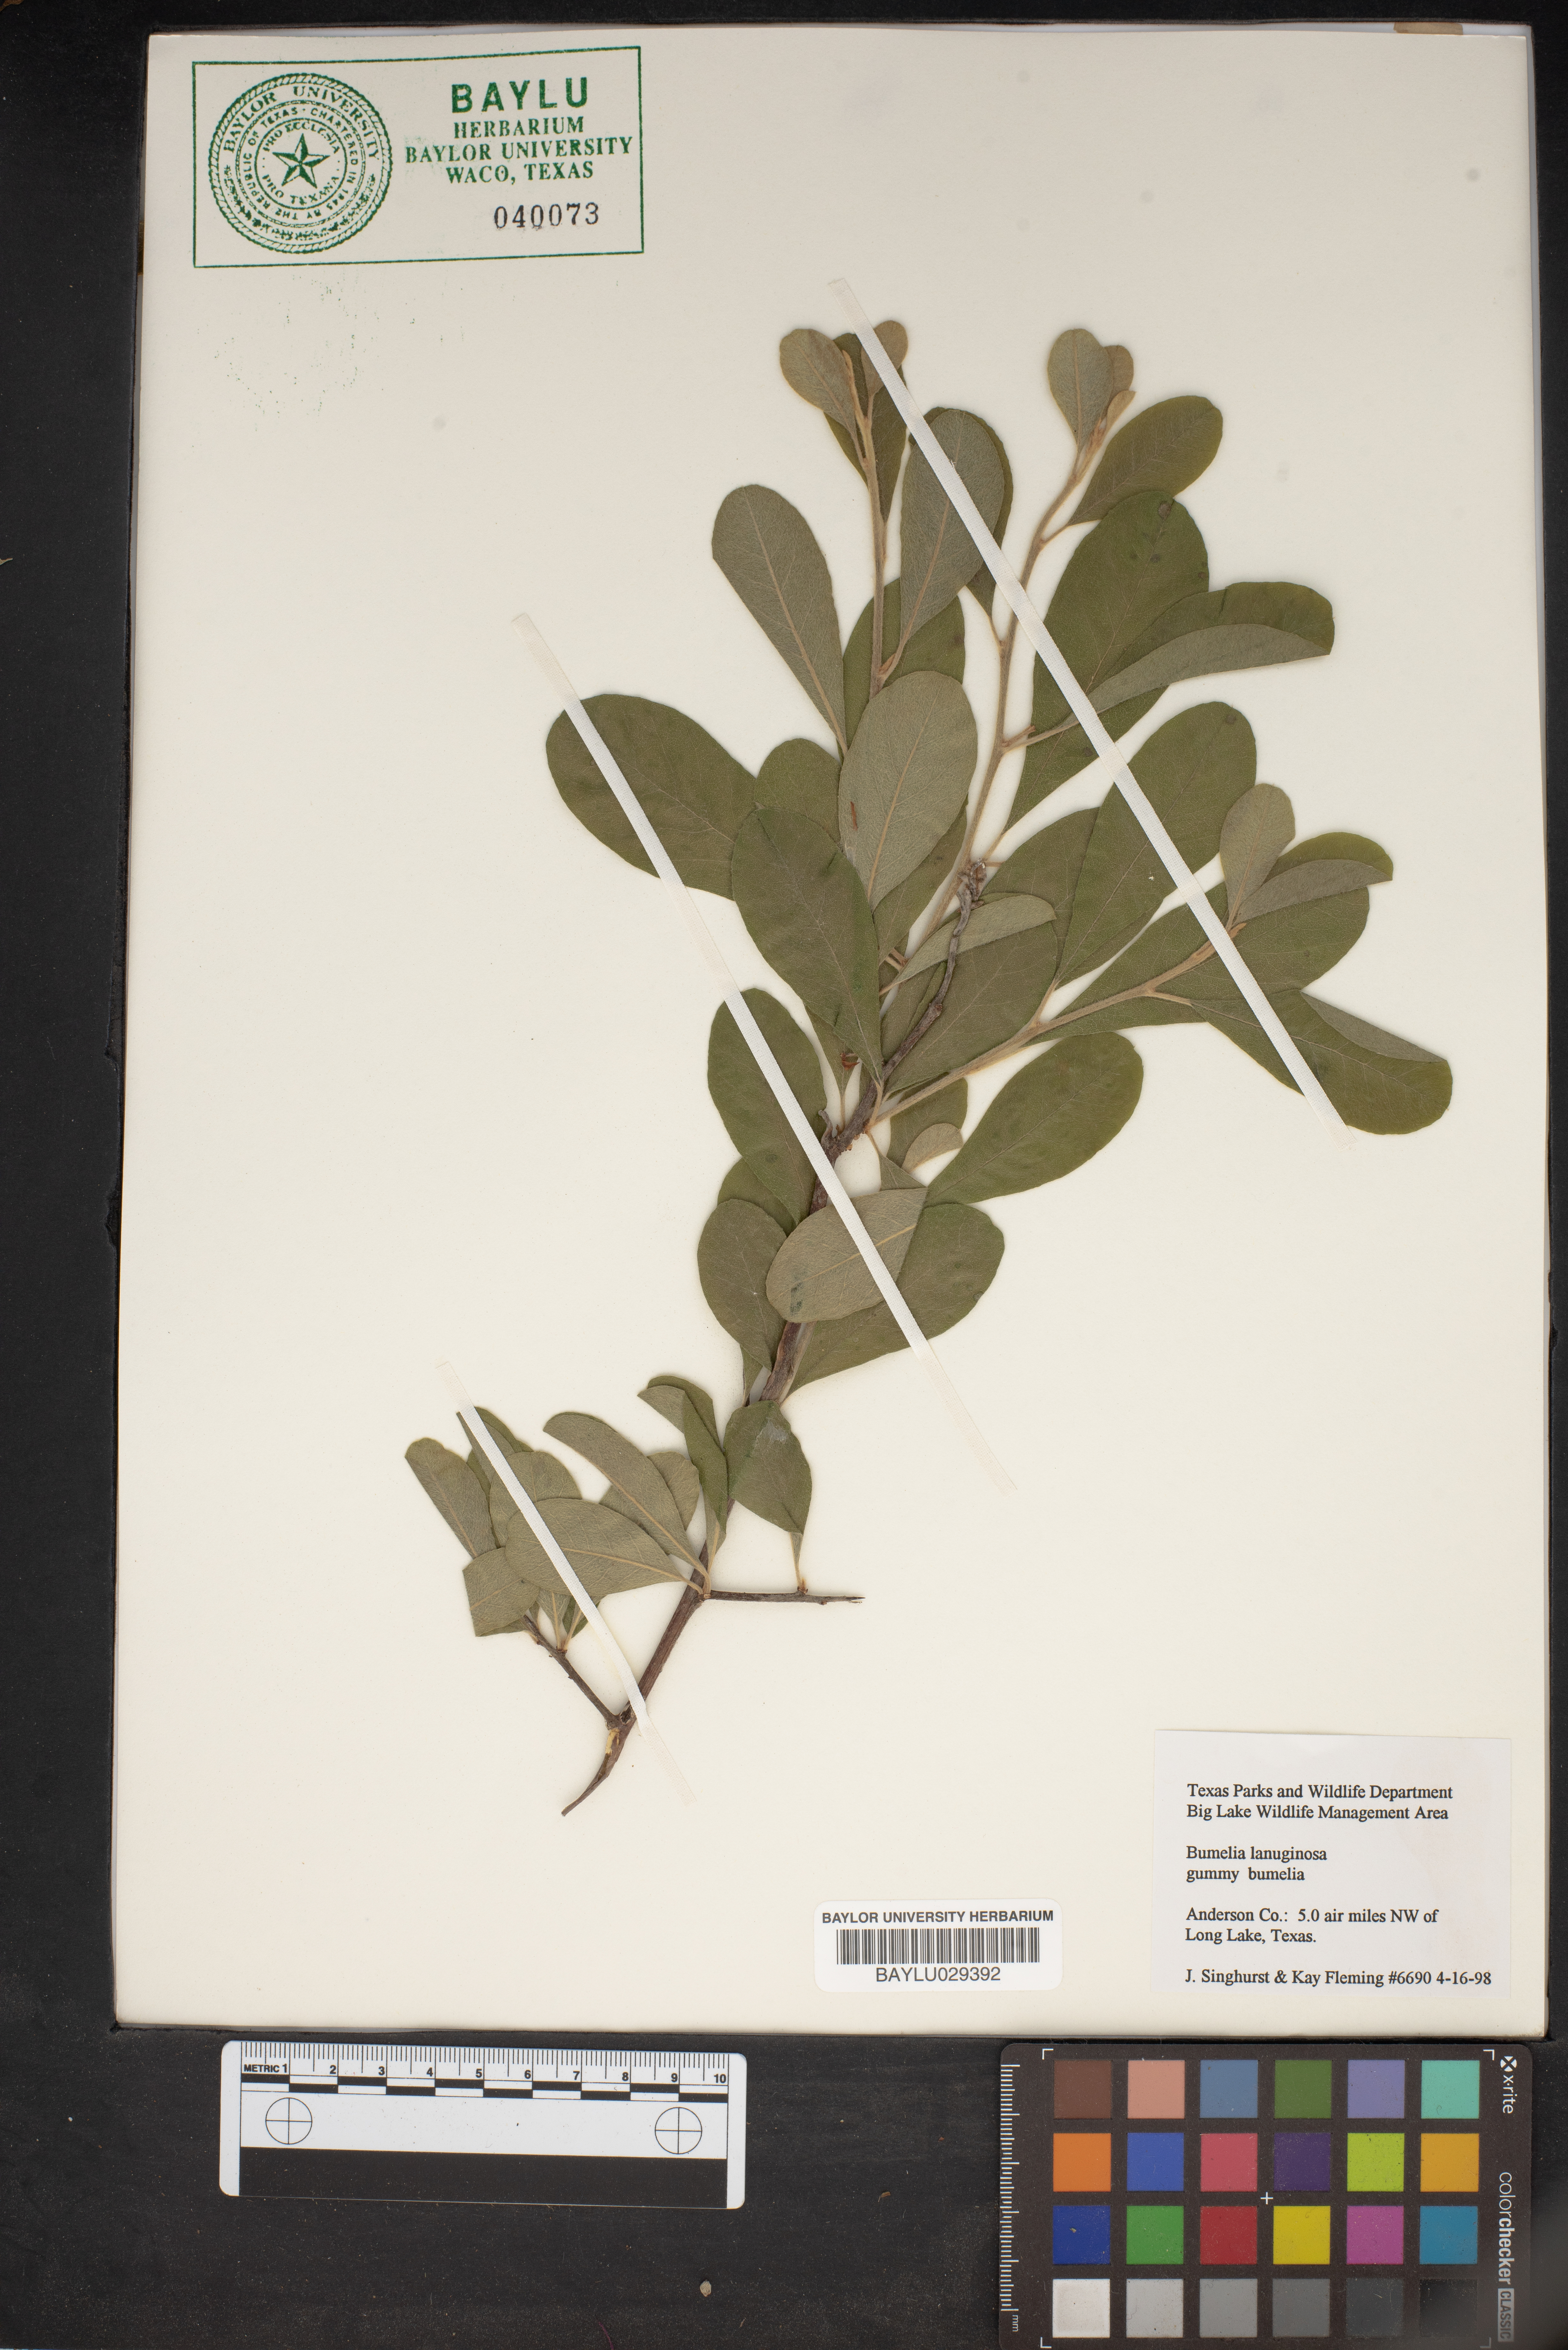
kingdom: Plantae
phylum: Tracheophyta
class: Magnoliopsida
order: Ericales
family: Sapotaceae
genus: Sideroxylon
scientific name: Sideroxylon lanuginosum
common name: Chittamwood
